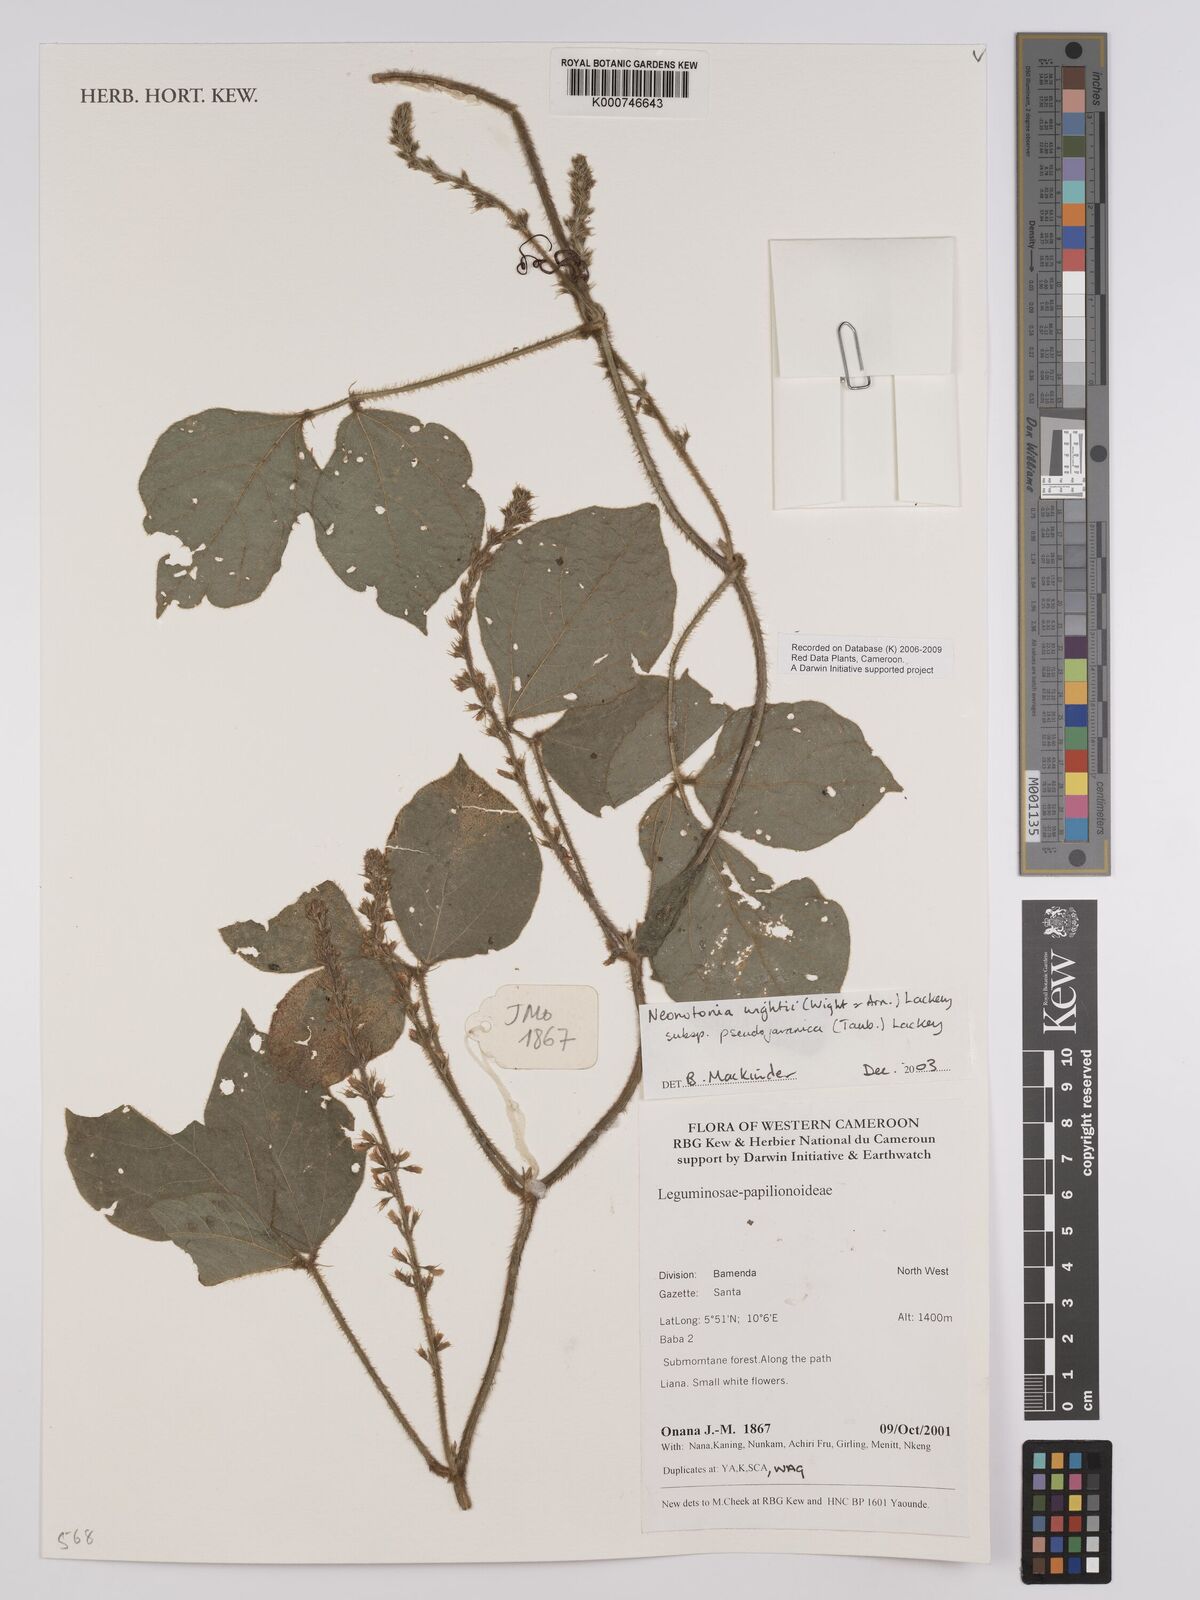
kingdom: Plantae
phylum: Tracheophyta
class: Magnoliopsida
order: Fabales
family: Fabaceae
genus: Neonotonia
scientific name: Neonotonia wightii
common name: Perennial soybean
